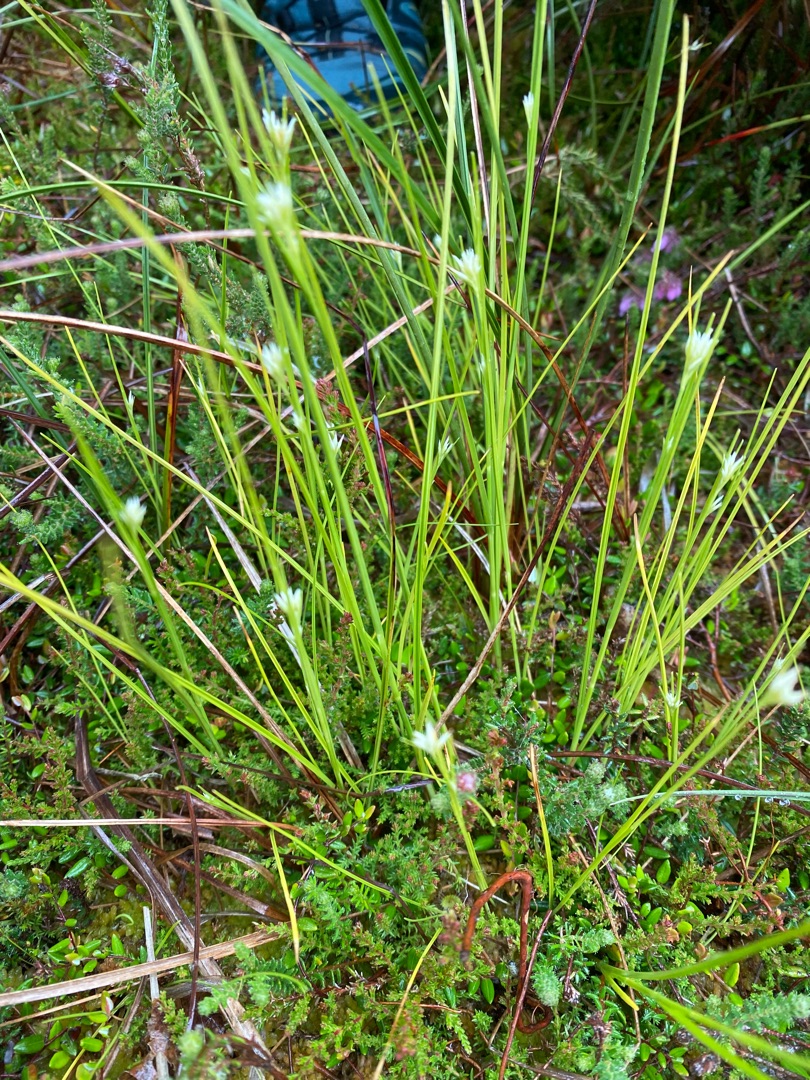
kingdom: Plantae
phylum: Tracheophyta
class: Liliopsida
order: Poales
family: Cyperaceae
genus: Rhynchospora
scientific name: Rhynchospora alba
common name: Hvid næbfrø
